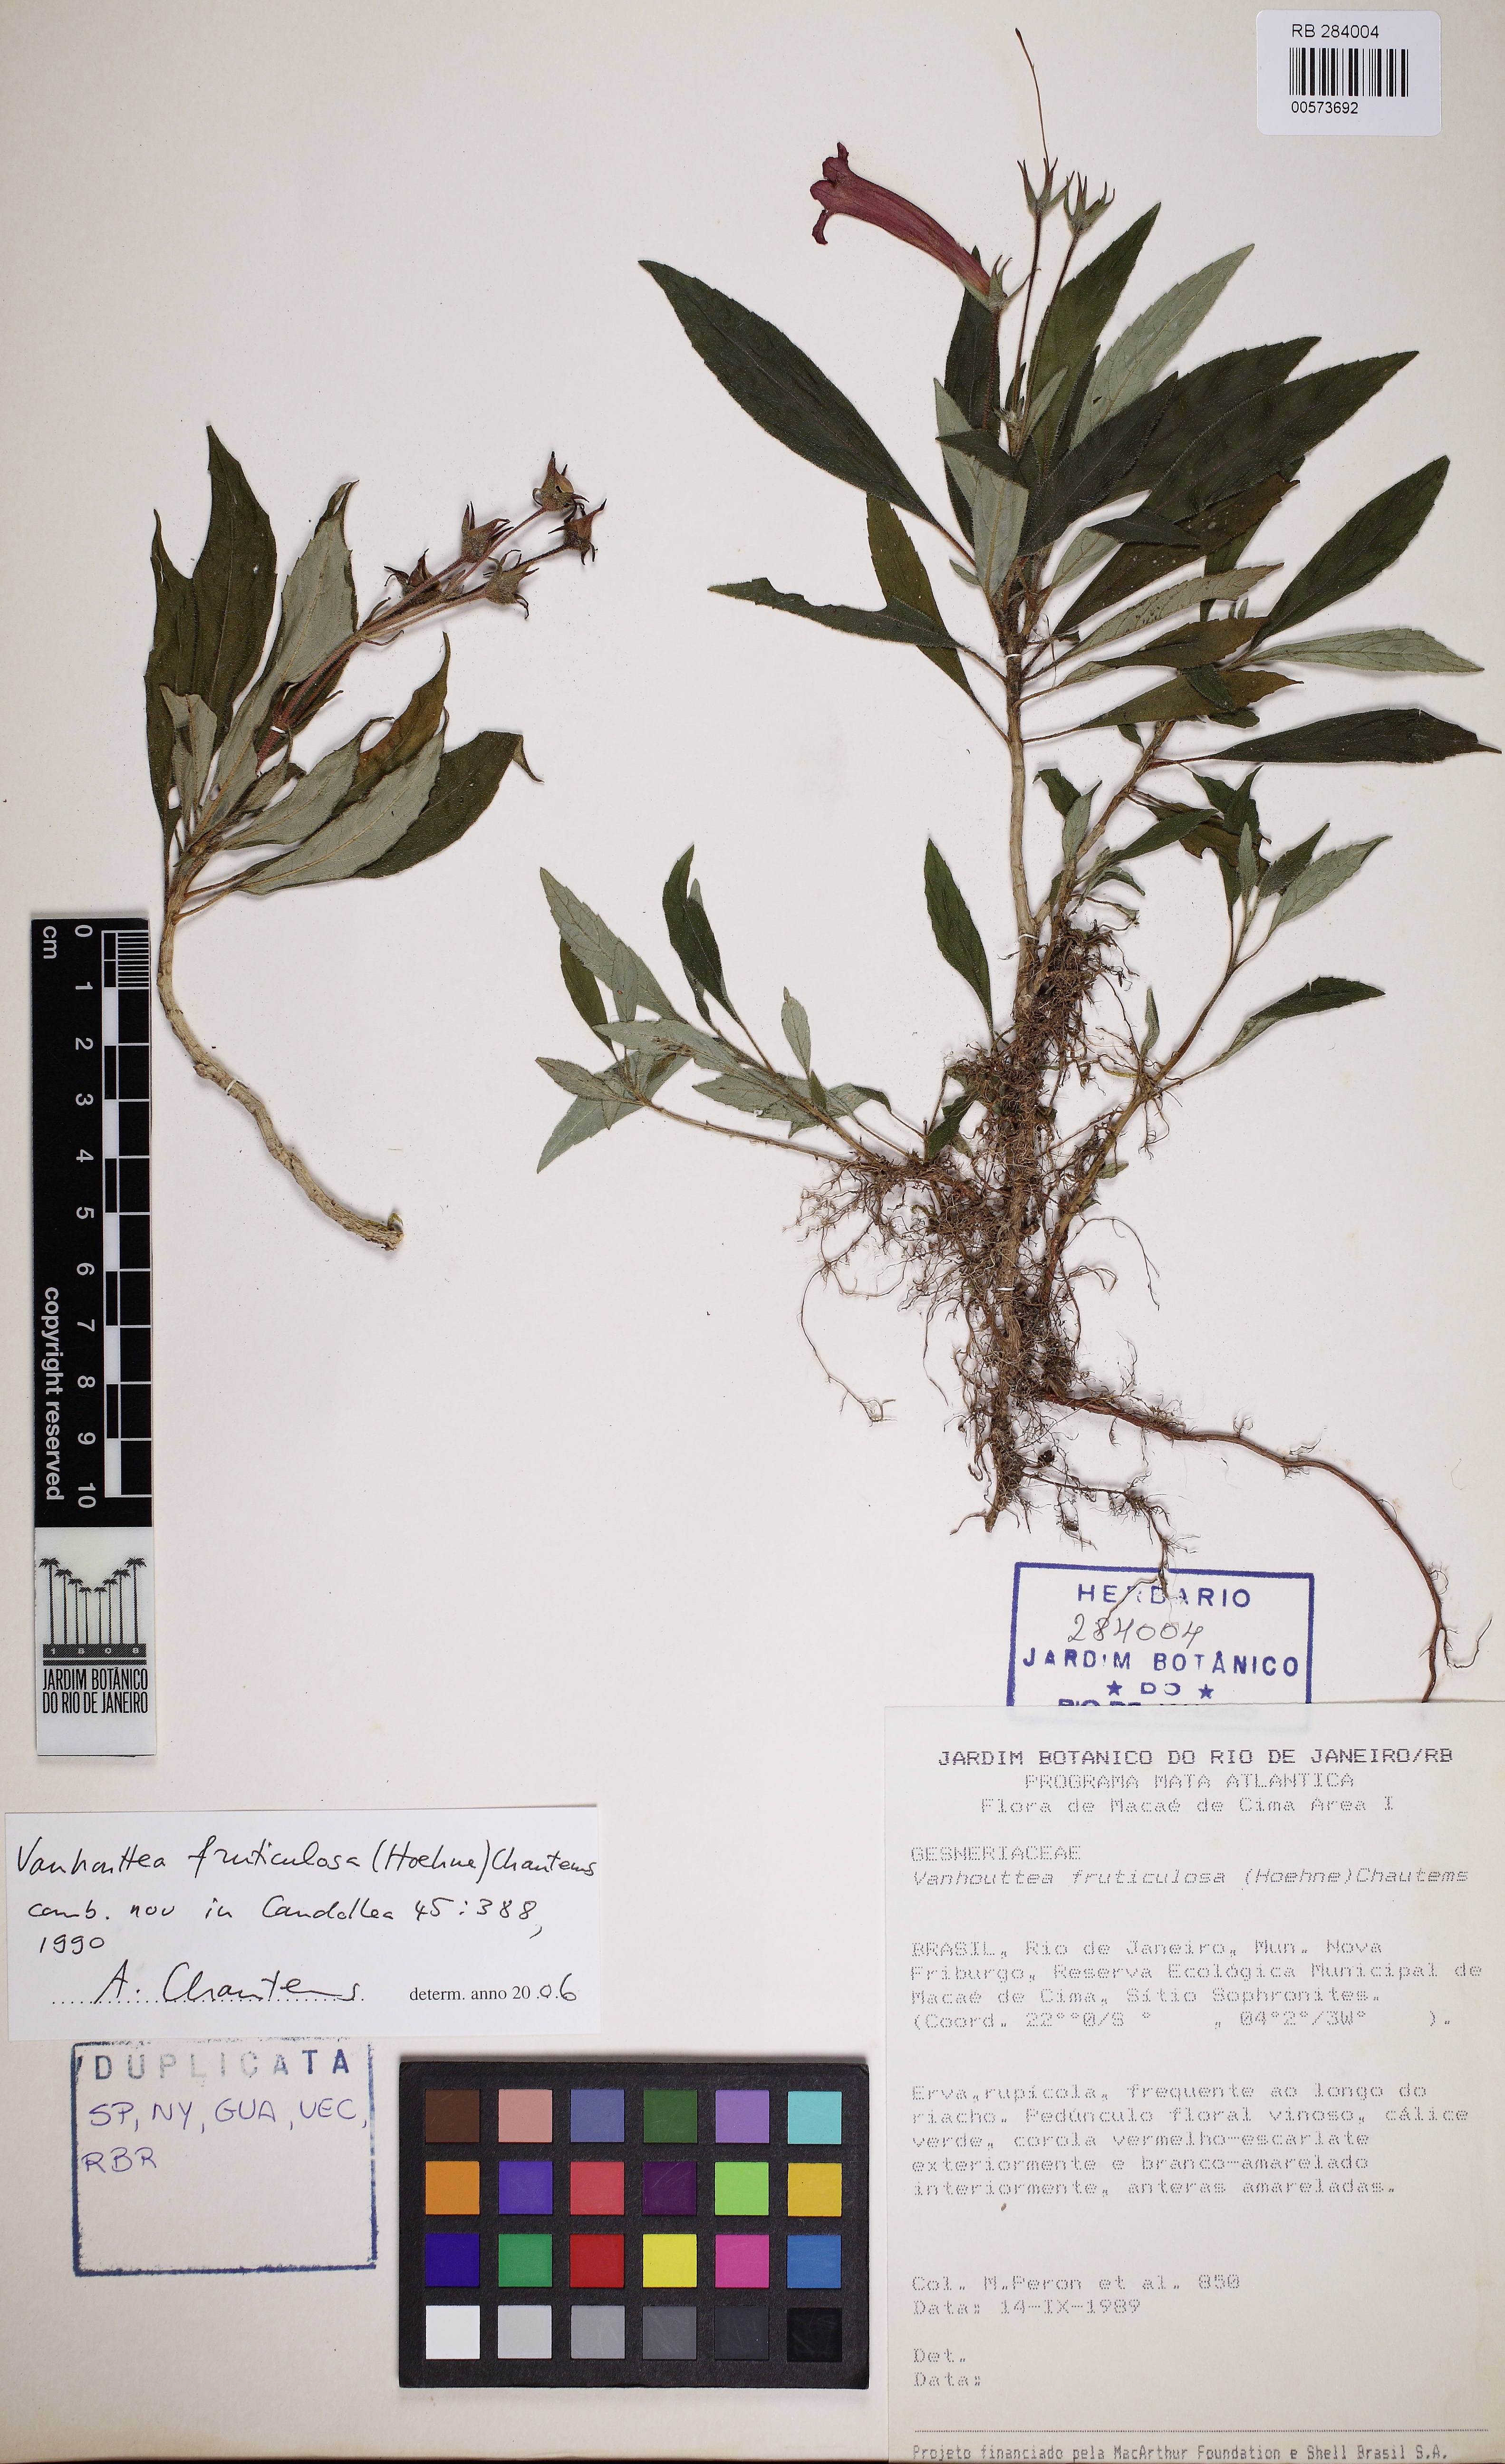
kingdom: Plantae
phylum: Tracheophyta
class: Magnoliopsida
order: Lamiales
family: Gesneriaceae
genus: Vanhouttea
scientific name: Vanhouttea fruticulosa
